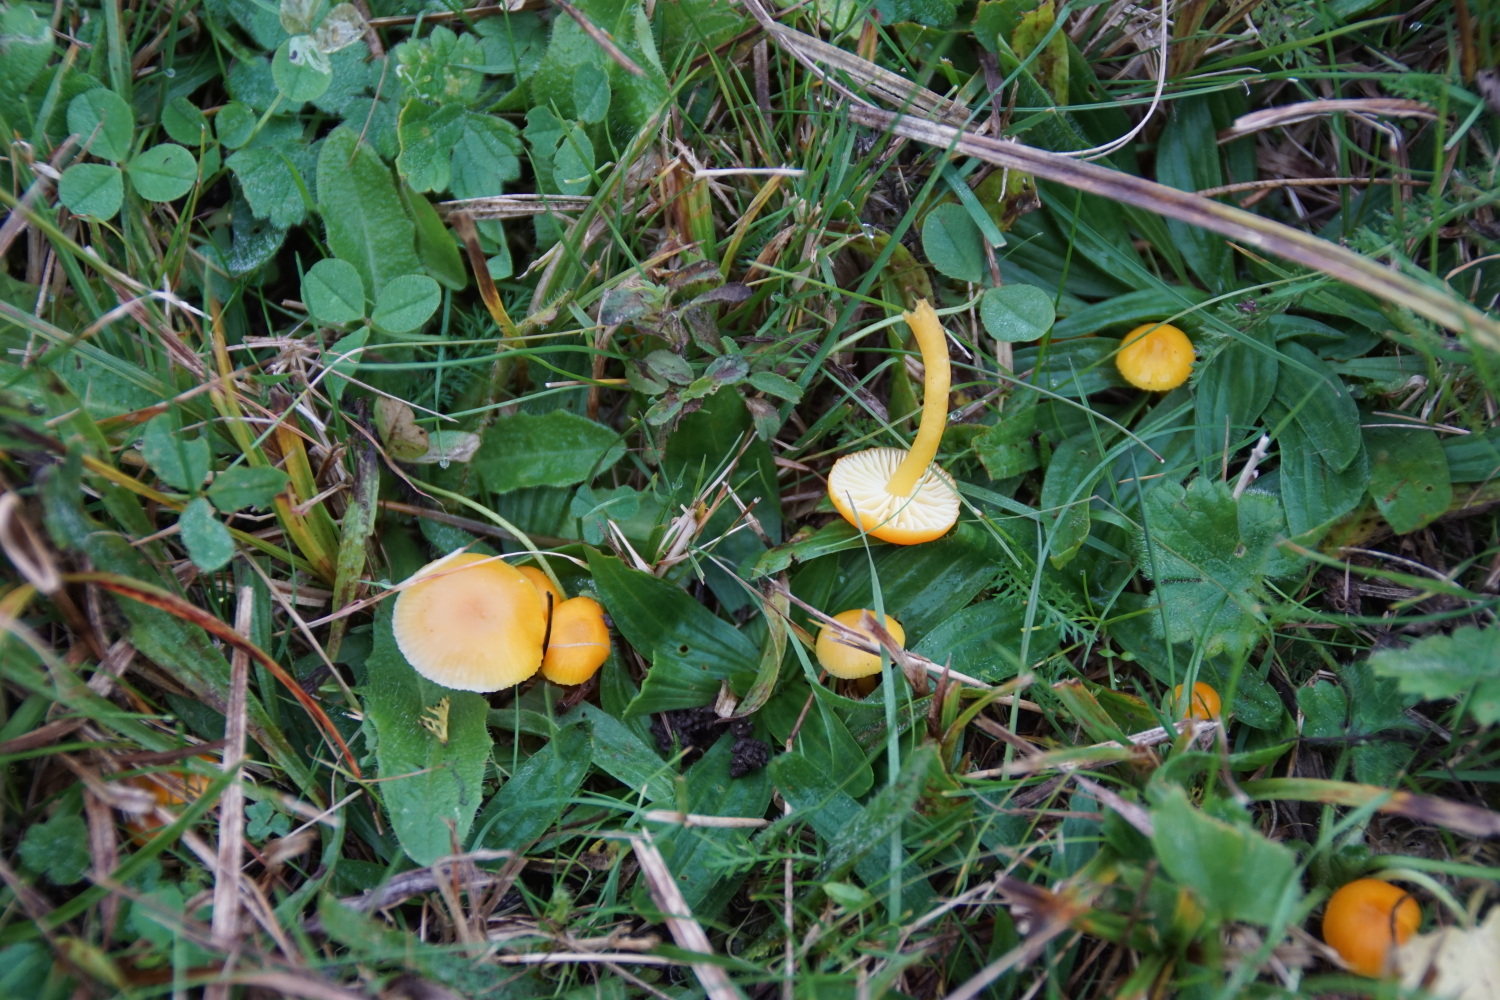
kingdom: Fungi
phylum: Basidiomycota
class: Agaricomycetes
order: Agaricales
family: Hygrophoraceae
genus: Hygrocybe
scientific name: Hygrocybe ceracea
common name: voksgul vokshat
